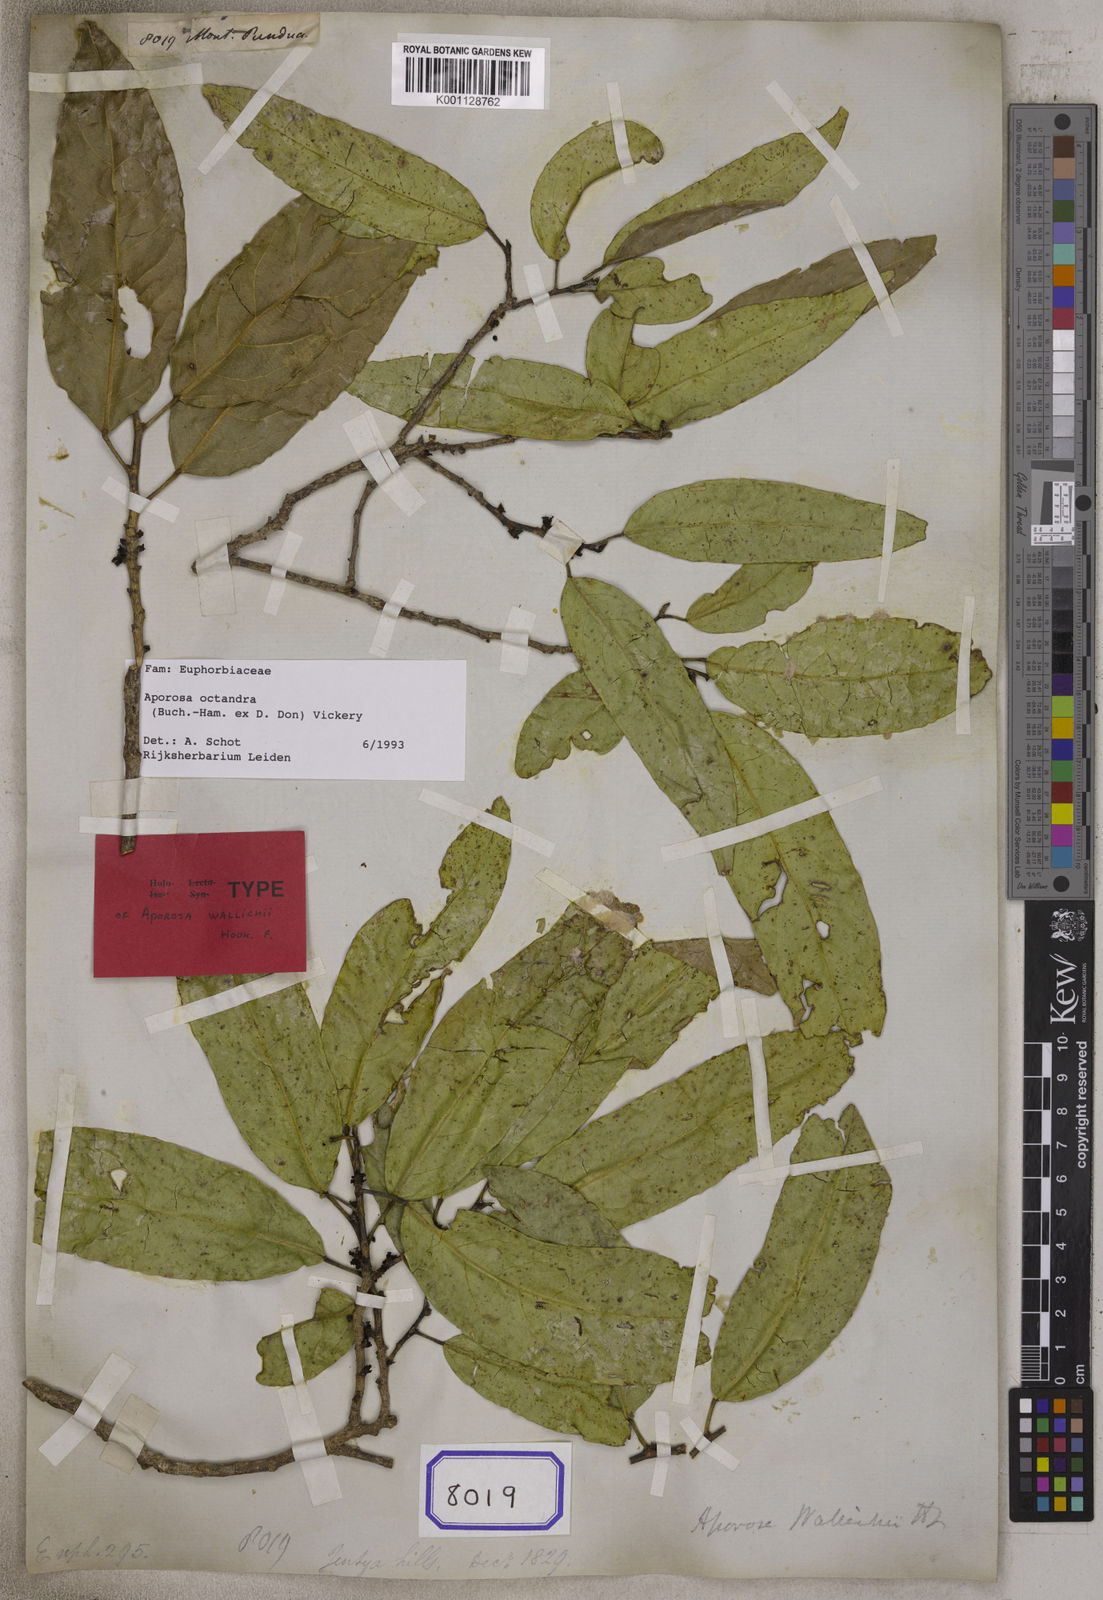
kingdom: Plantae
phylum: Tracheophyta
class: Magnoliopsida
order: Malpighiales
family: Euphorbiaceae
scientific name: Euphorbiaceae
